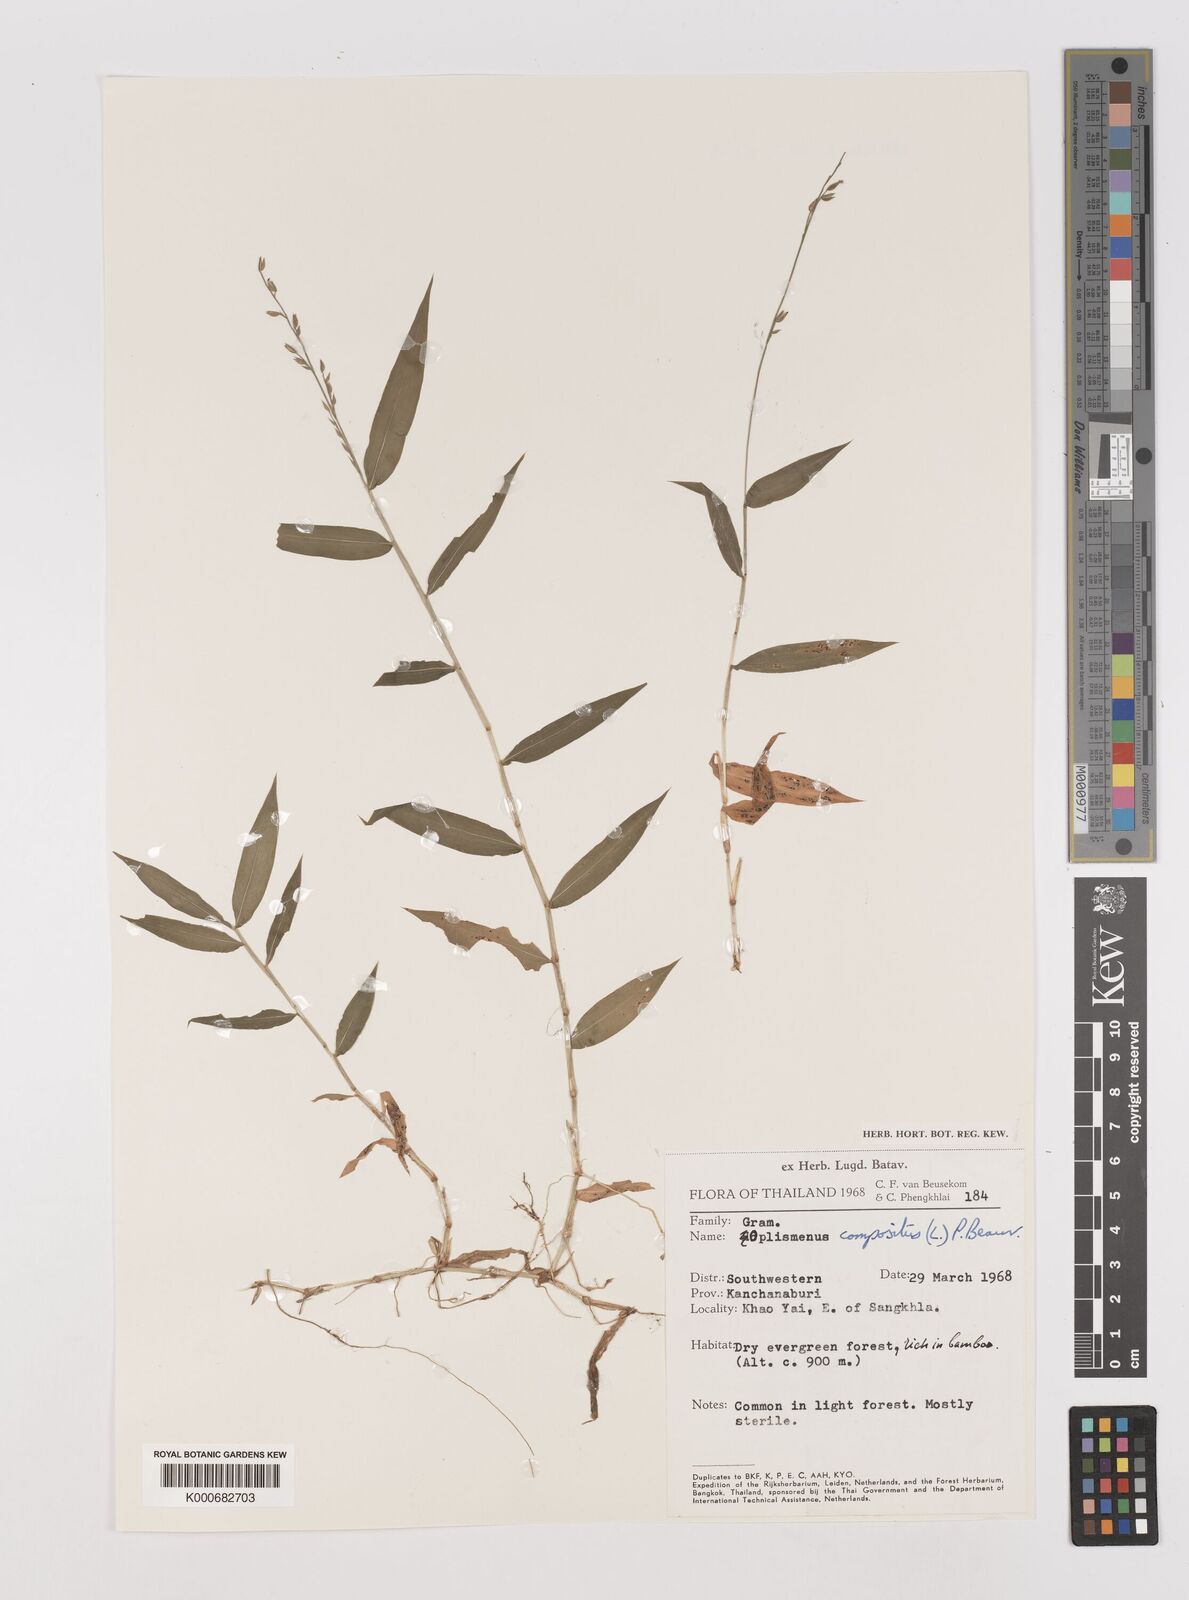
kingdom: Plantae
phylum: Tracheophyta
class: Liliopsida
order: Poales
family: Poaceae
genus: Pseudechinolaena
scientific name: Pseudechinolaena polystachya
